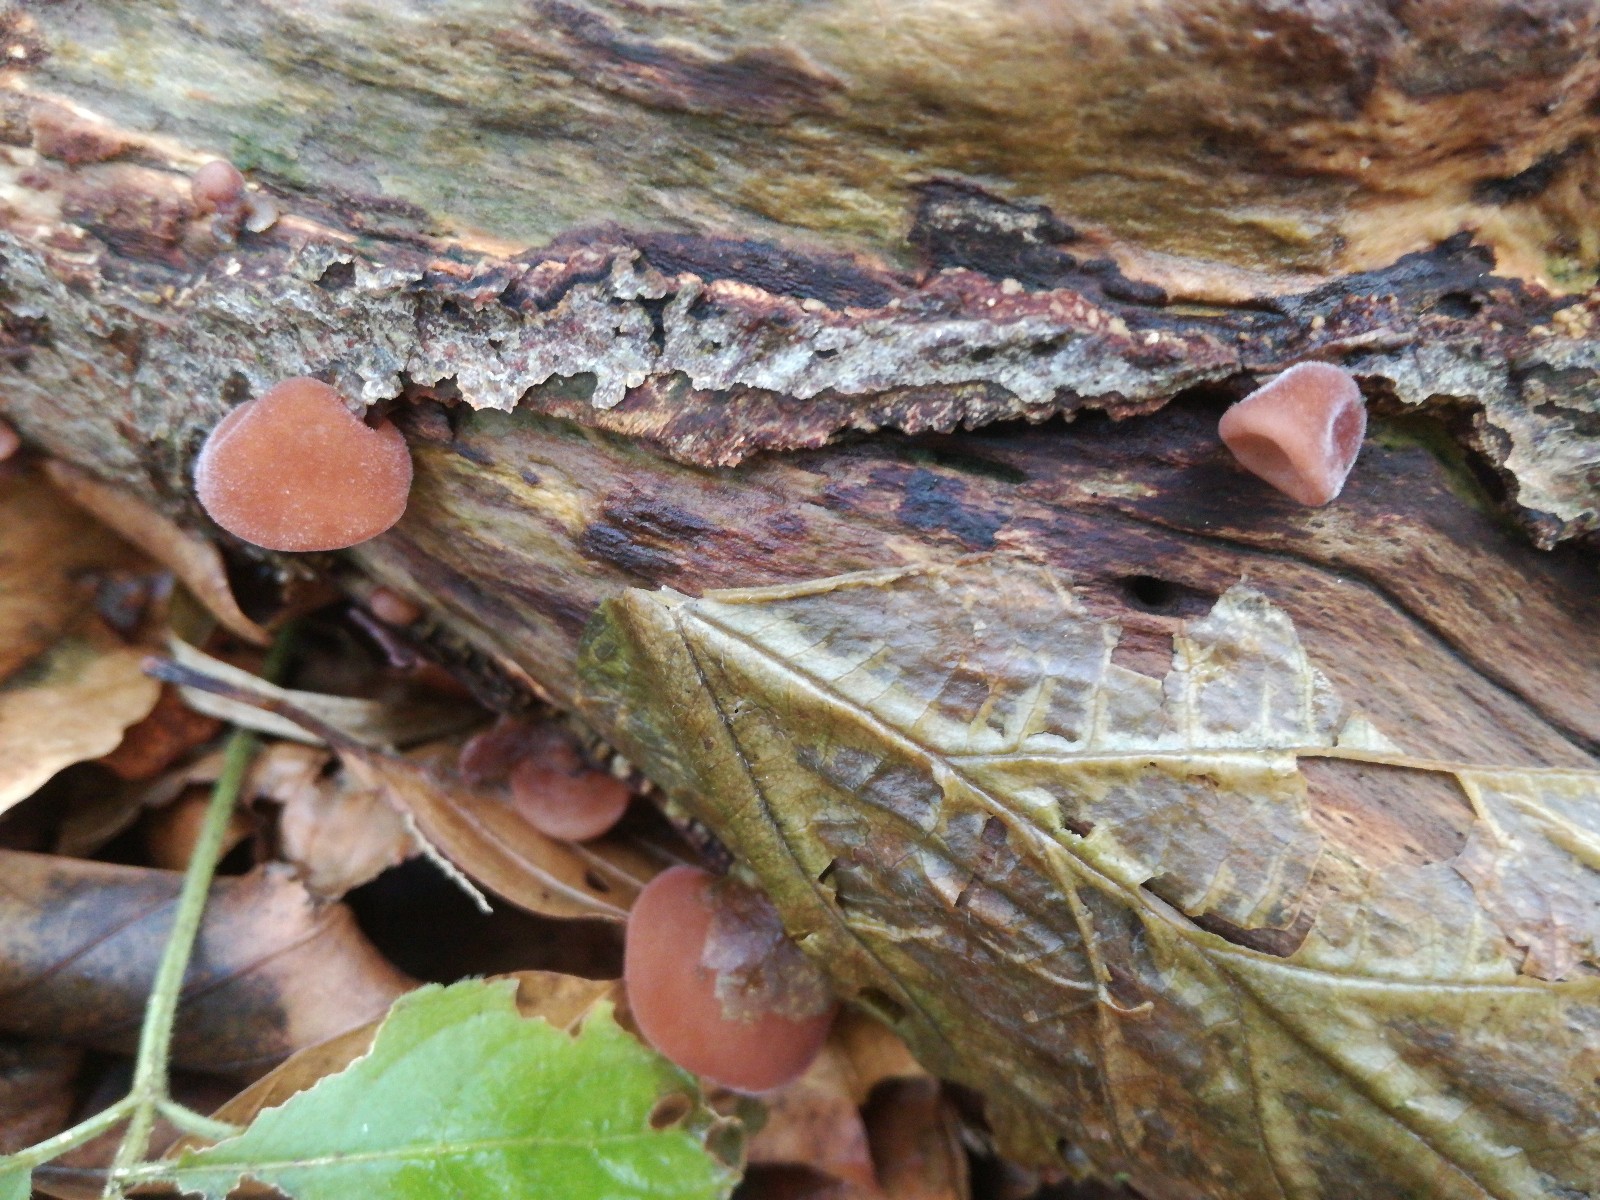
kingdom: Fungi
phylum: Basidiomycota
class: Agaricomycetes
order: Auriculariales
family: Auriculariaceae
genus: Auricularia
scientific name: Auricularia auricula-judae
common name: almindelig judasøre
